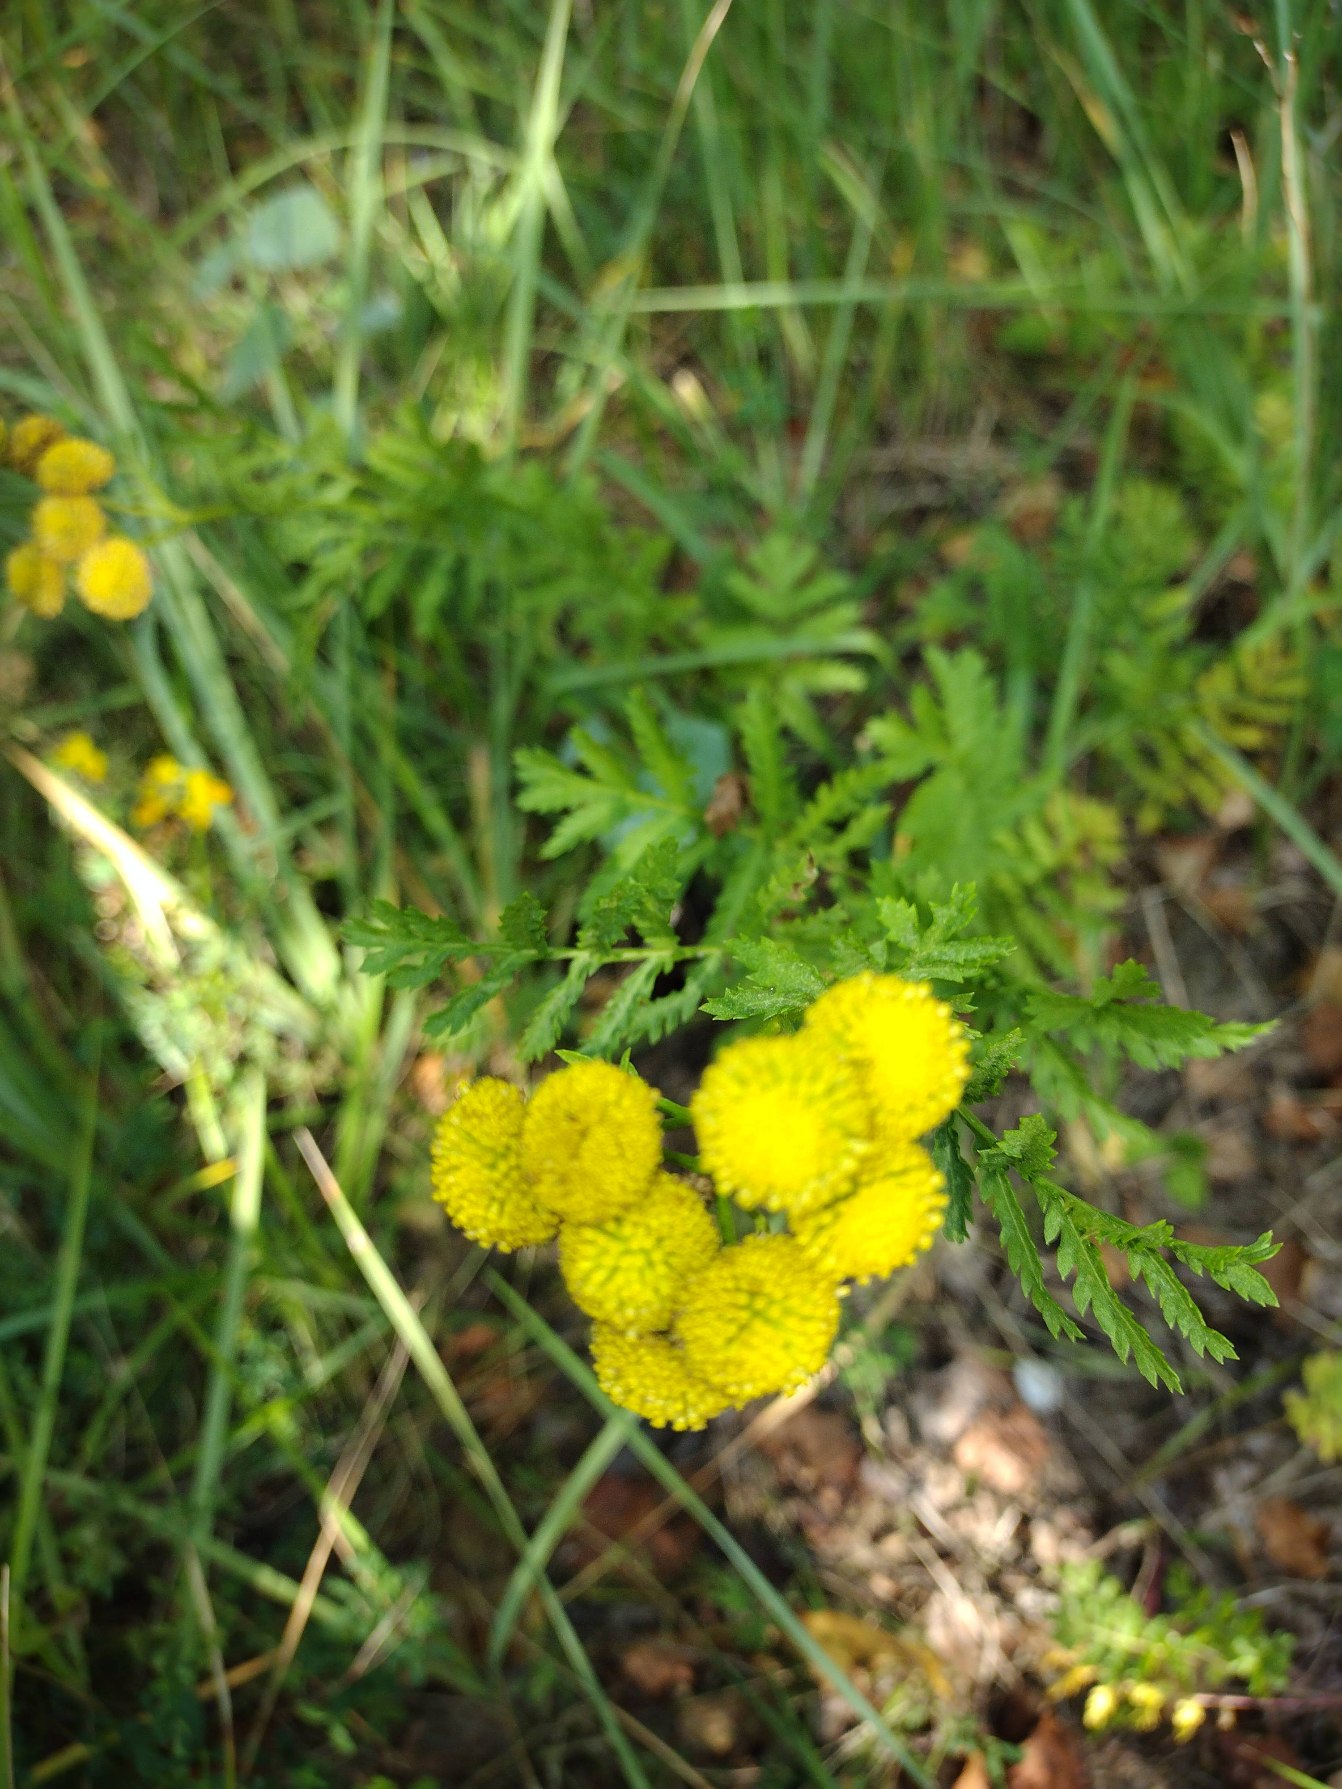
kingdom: Plantae
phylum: Tracheophyta
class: Magnoliopsida
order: Asterales
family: Asteraceae
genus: Tanacetum
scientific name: Tanacetum vulgare
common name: Rejnfan
